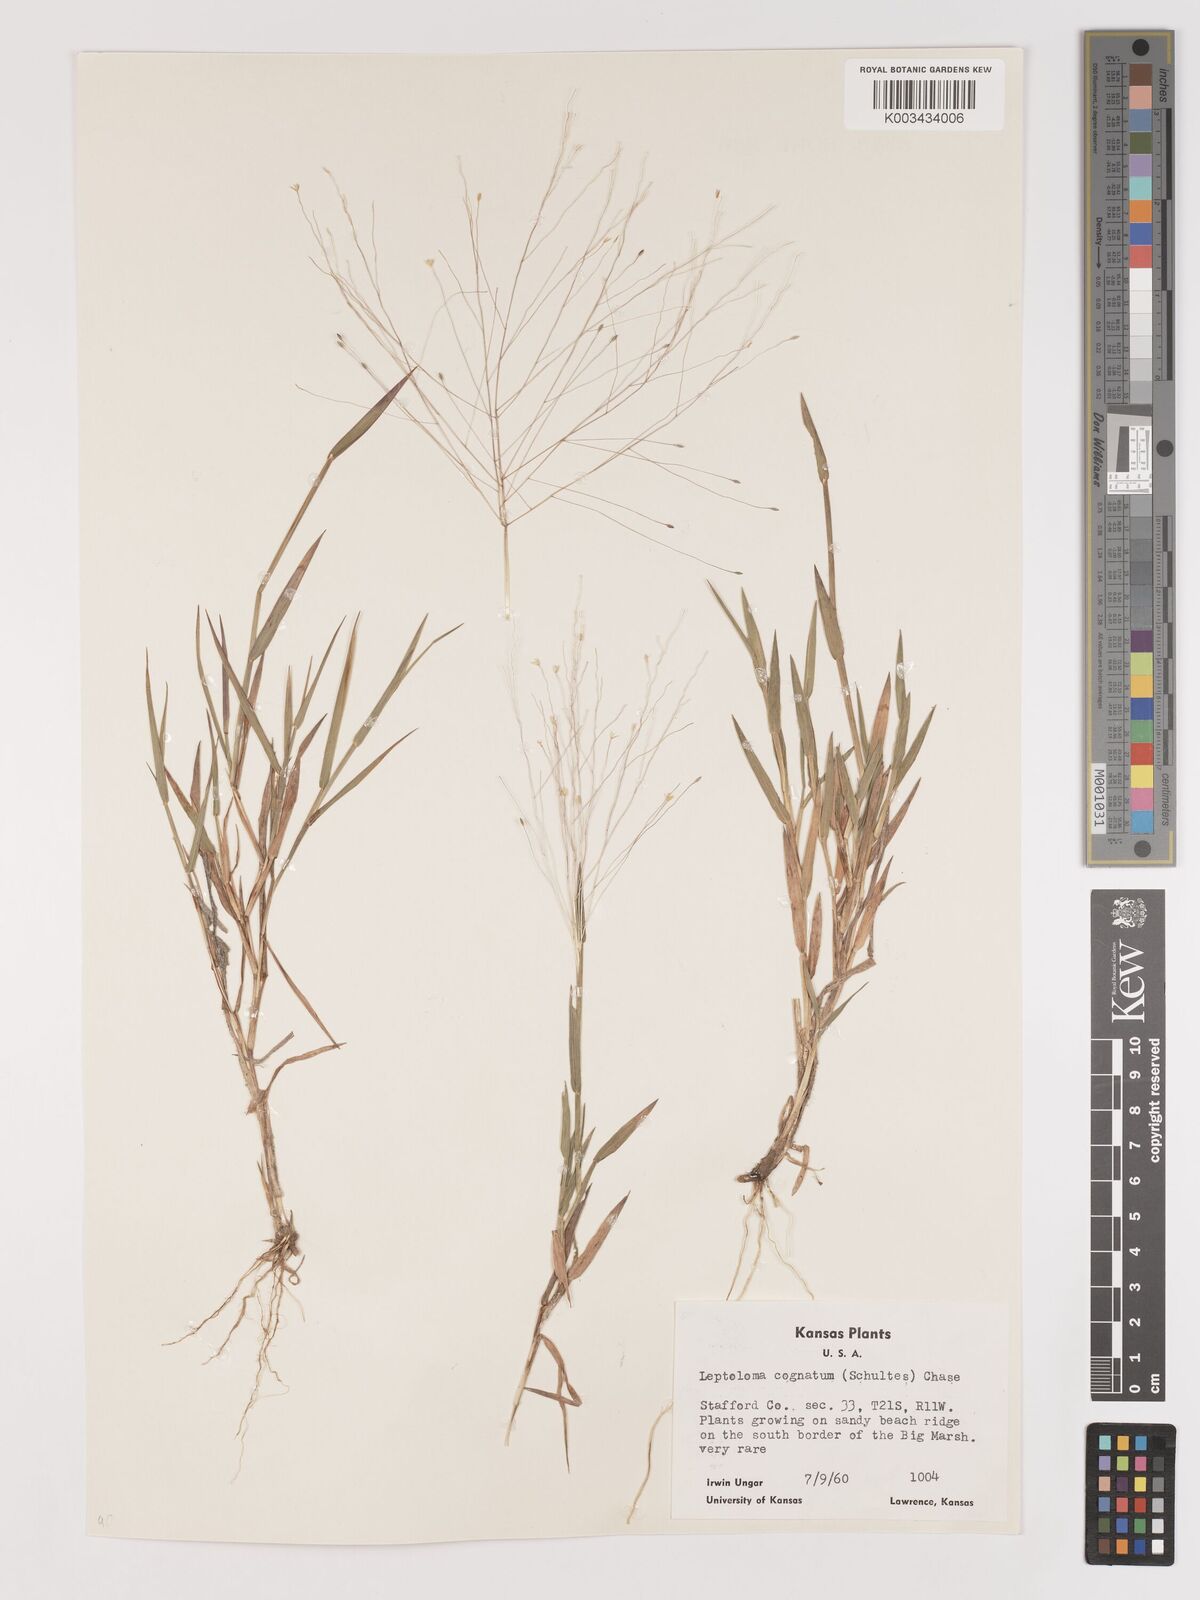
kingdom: Plantae
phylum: Tracheophyta
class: Liliopsida
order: Poales
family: Poaceae
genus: Digitaria
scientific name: Digitaria cognata
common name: Fall witchgrass
